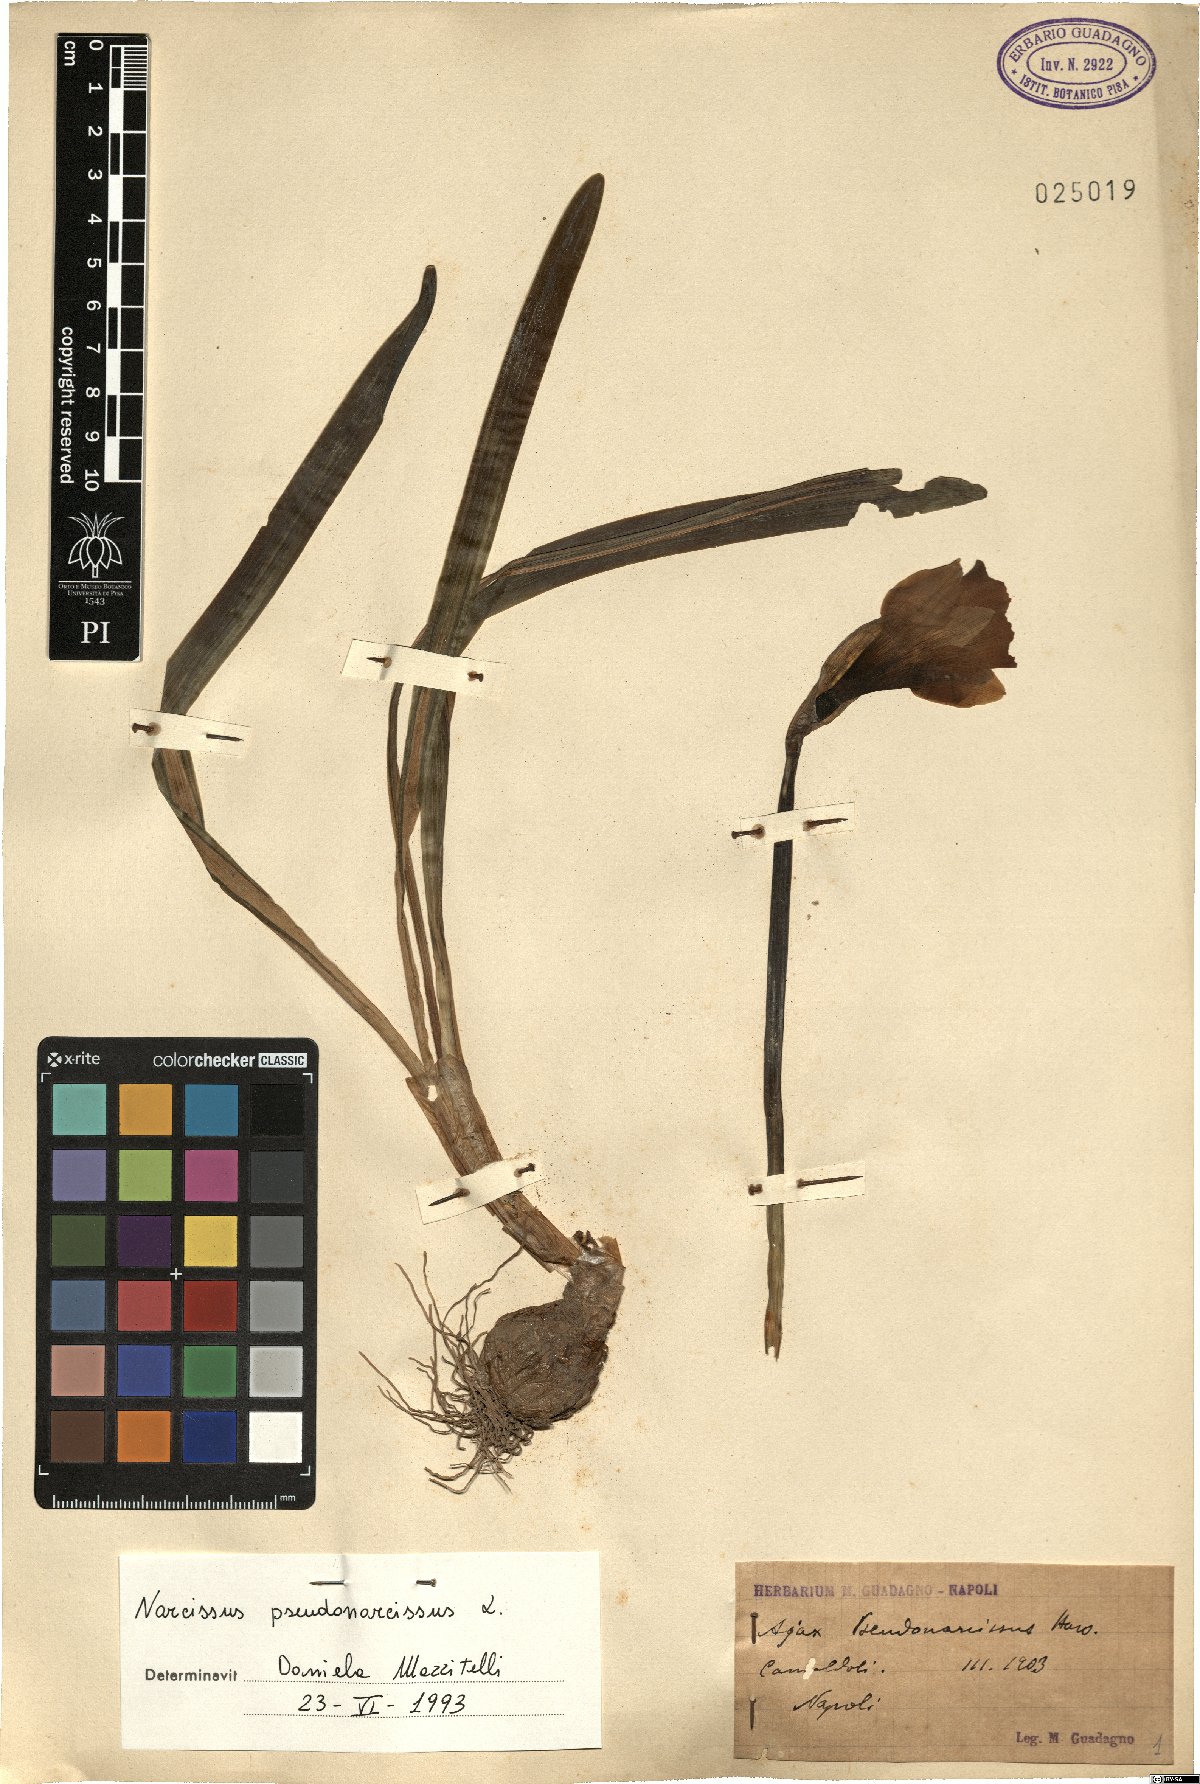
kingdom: Plantae
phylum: Tracheophyta
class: Liliopsida
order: Asparagales
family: Amaryllidaceae
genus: Narcissus
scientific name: Narcissus pseudonarcissus
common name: Daffodil
